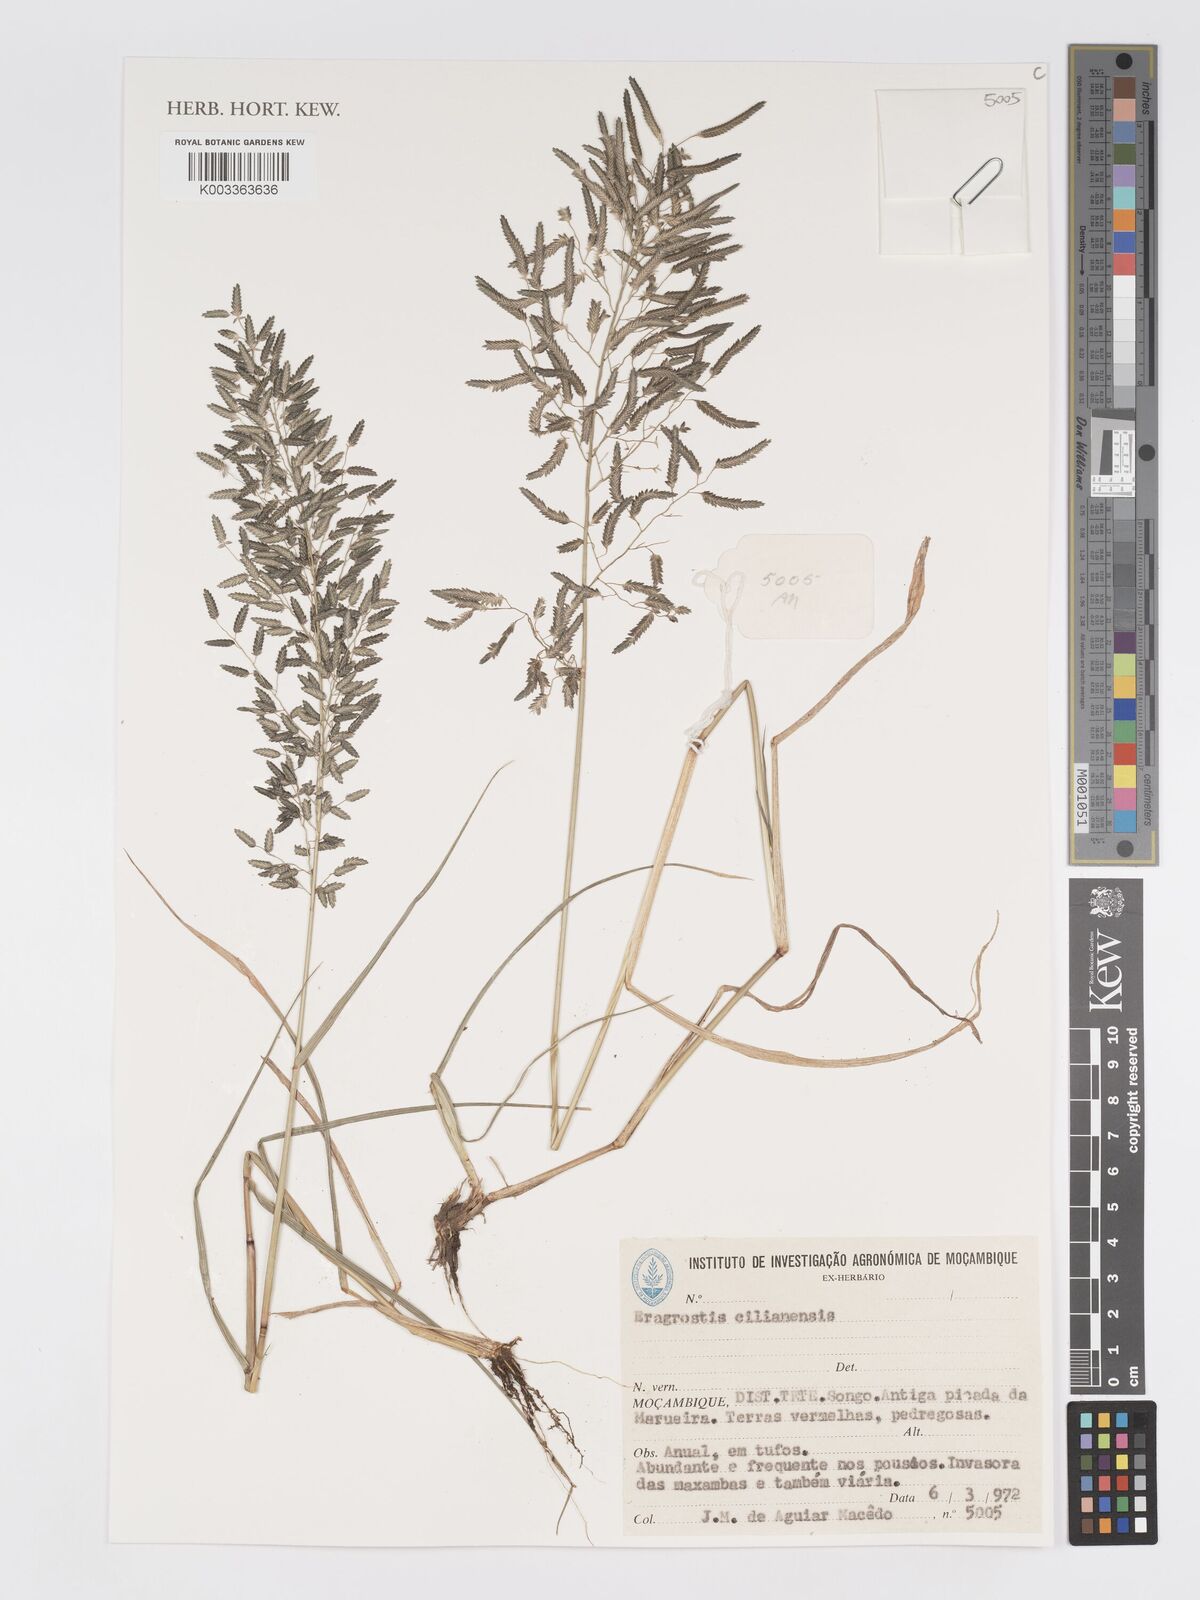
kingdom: Plantae
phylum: Tracheophyta
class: Liliopsida
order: Poales
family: Poaceae
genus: Eragrostis
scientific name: Eragrostis cilianensis
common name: Stinkgrass
